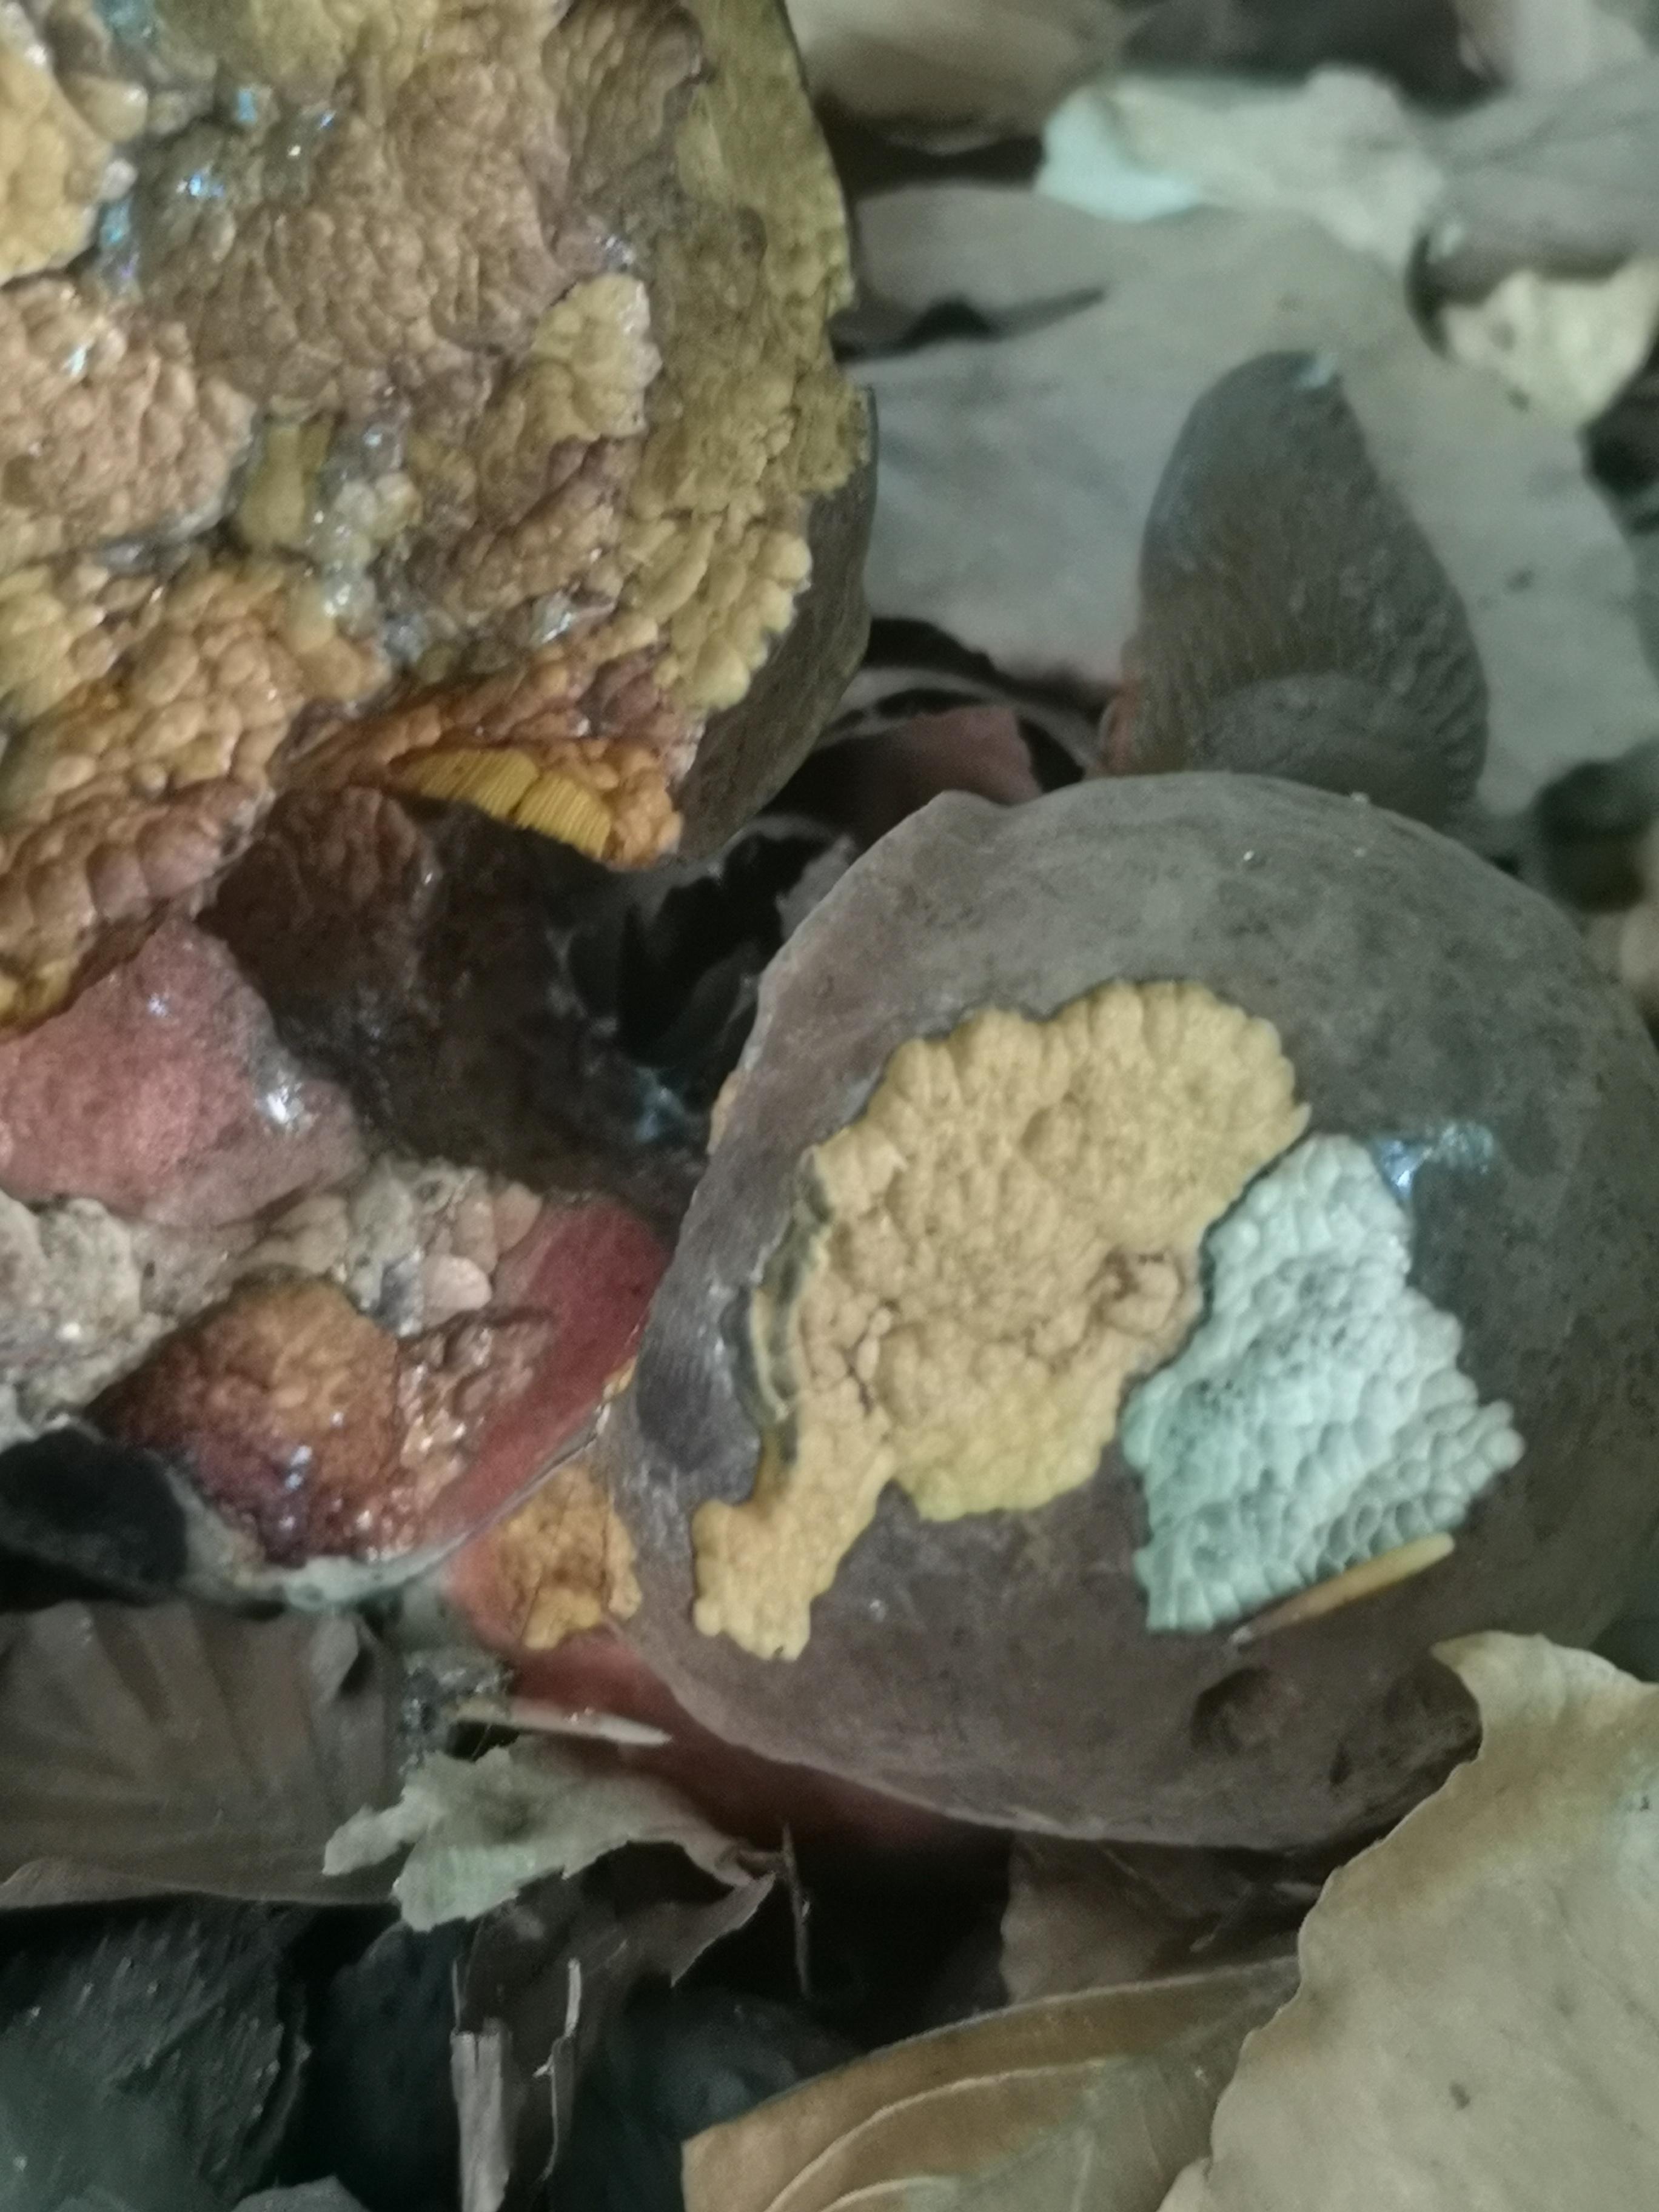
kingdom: Fungi
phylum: Basidiomycota
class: Agaricomycetes
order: Boletales
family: Boletaceae
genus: Neoboletus
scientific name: Neoboletus erythropus
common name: punktstokket indigorørhat
